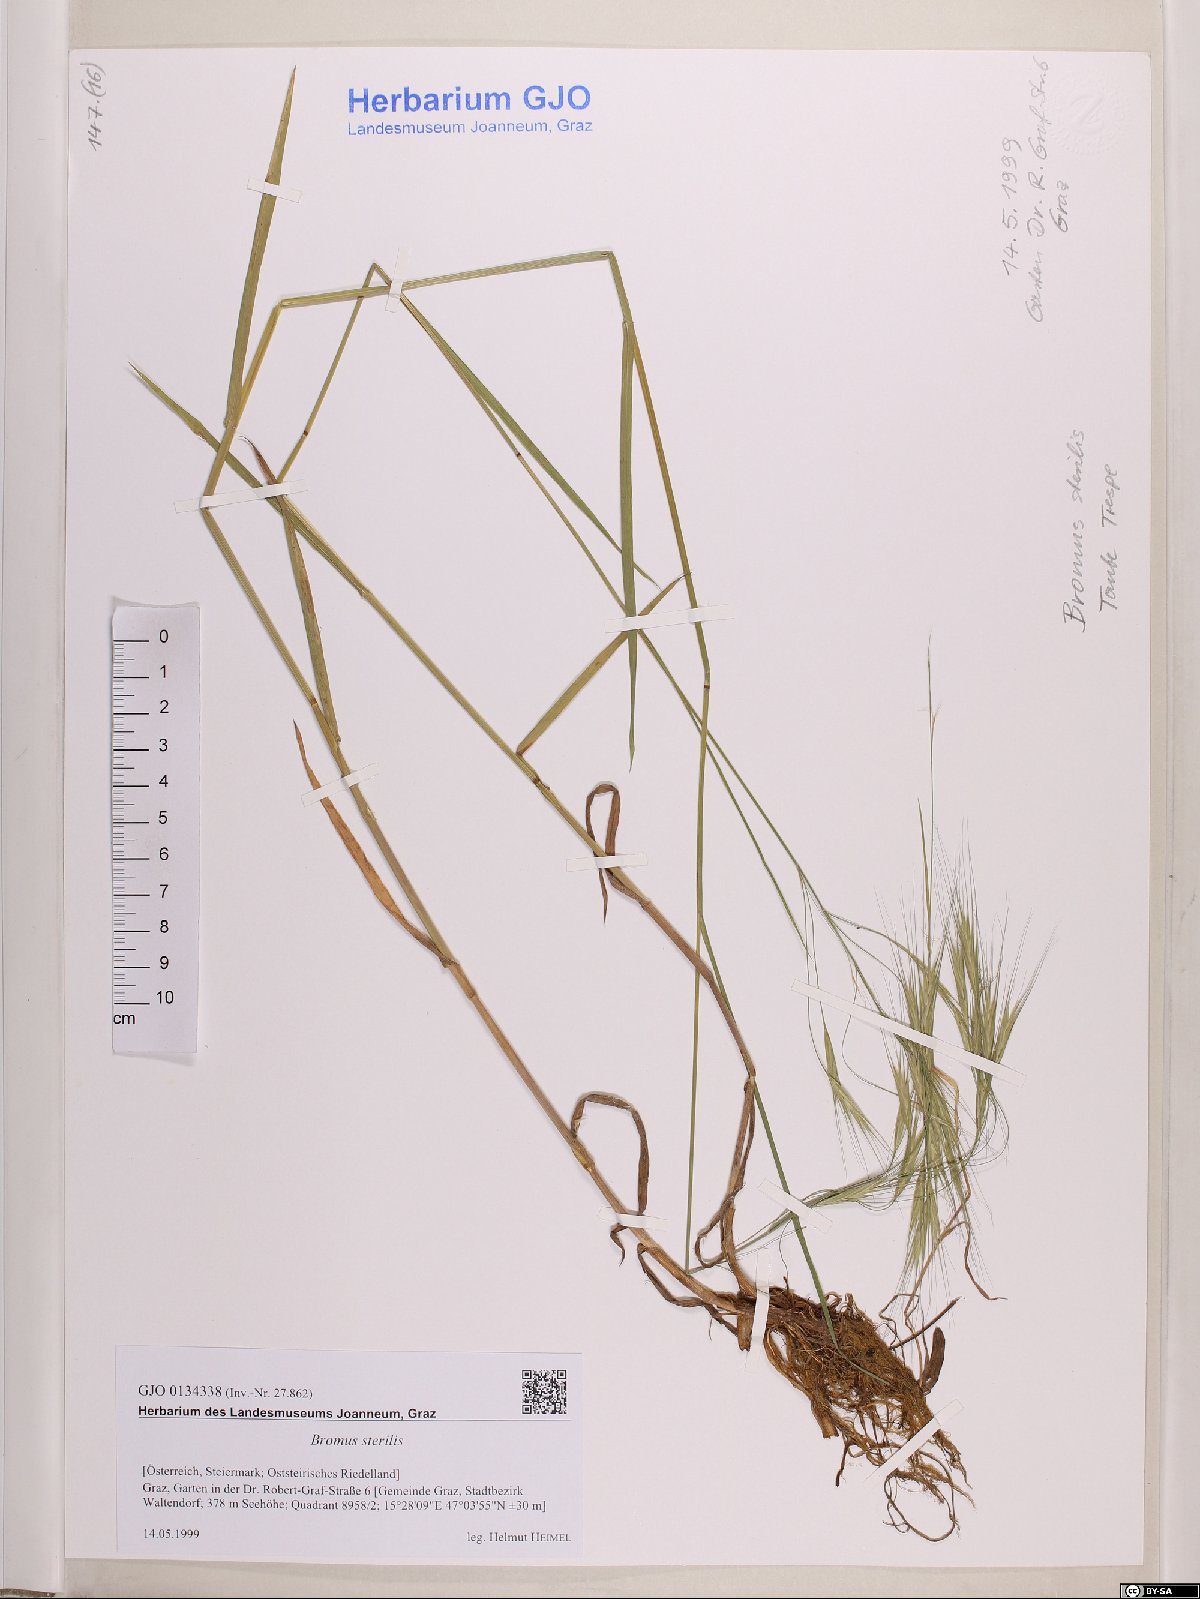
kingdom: Plantae
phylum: Tracheophyta
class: Liliopsida
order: Poales
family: Poaceae
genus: Bromus
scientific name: Bromus sterilis
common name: Poverty brome
